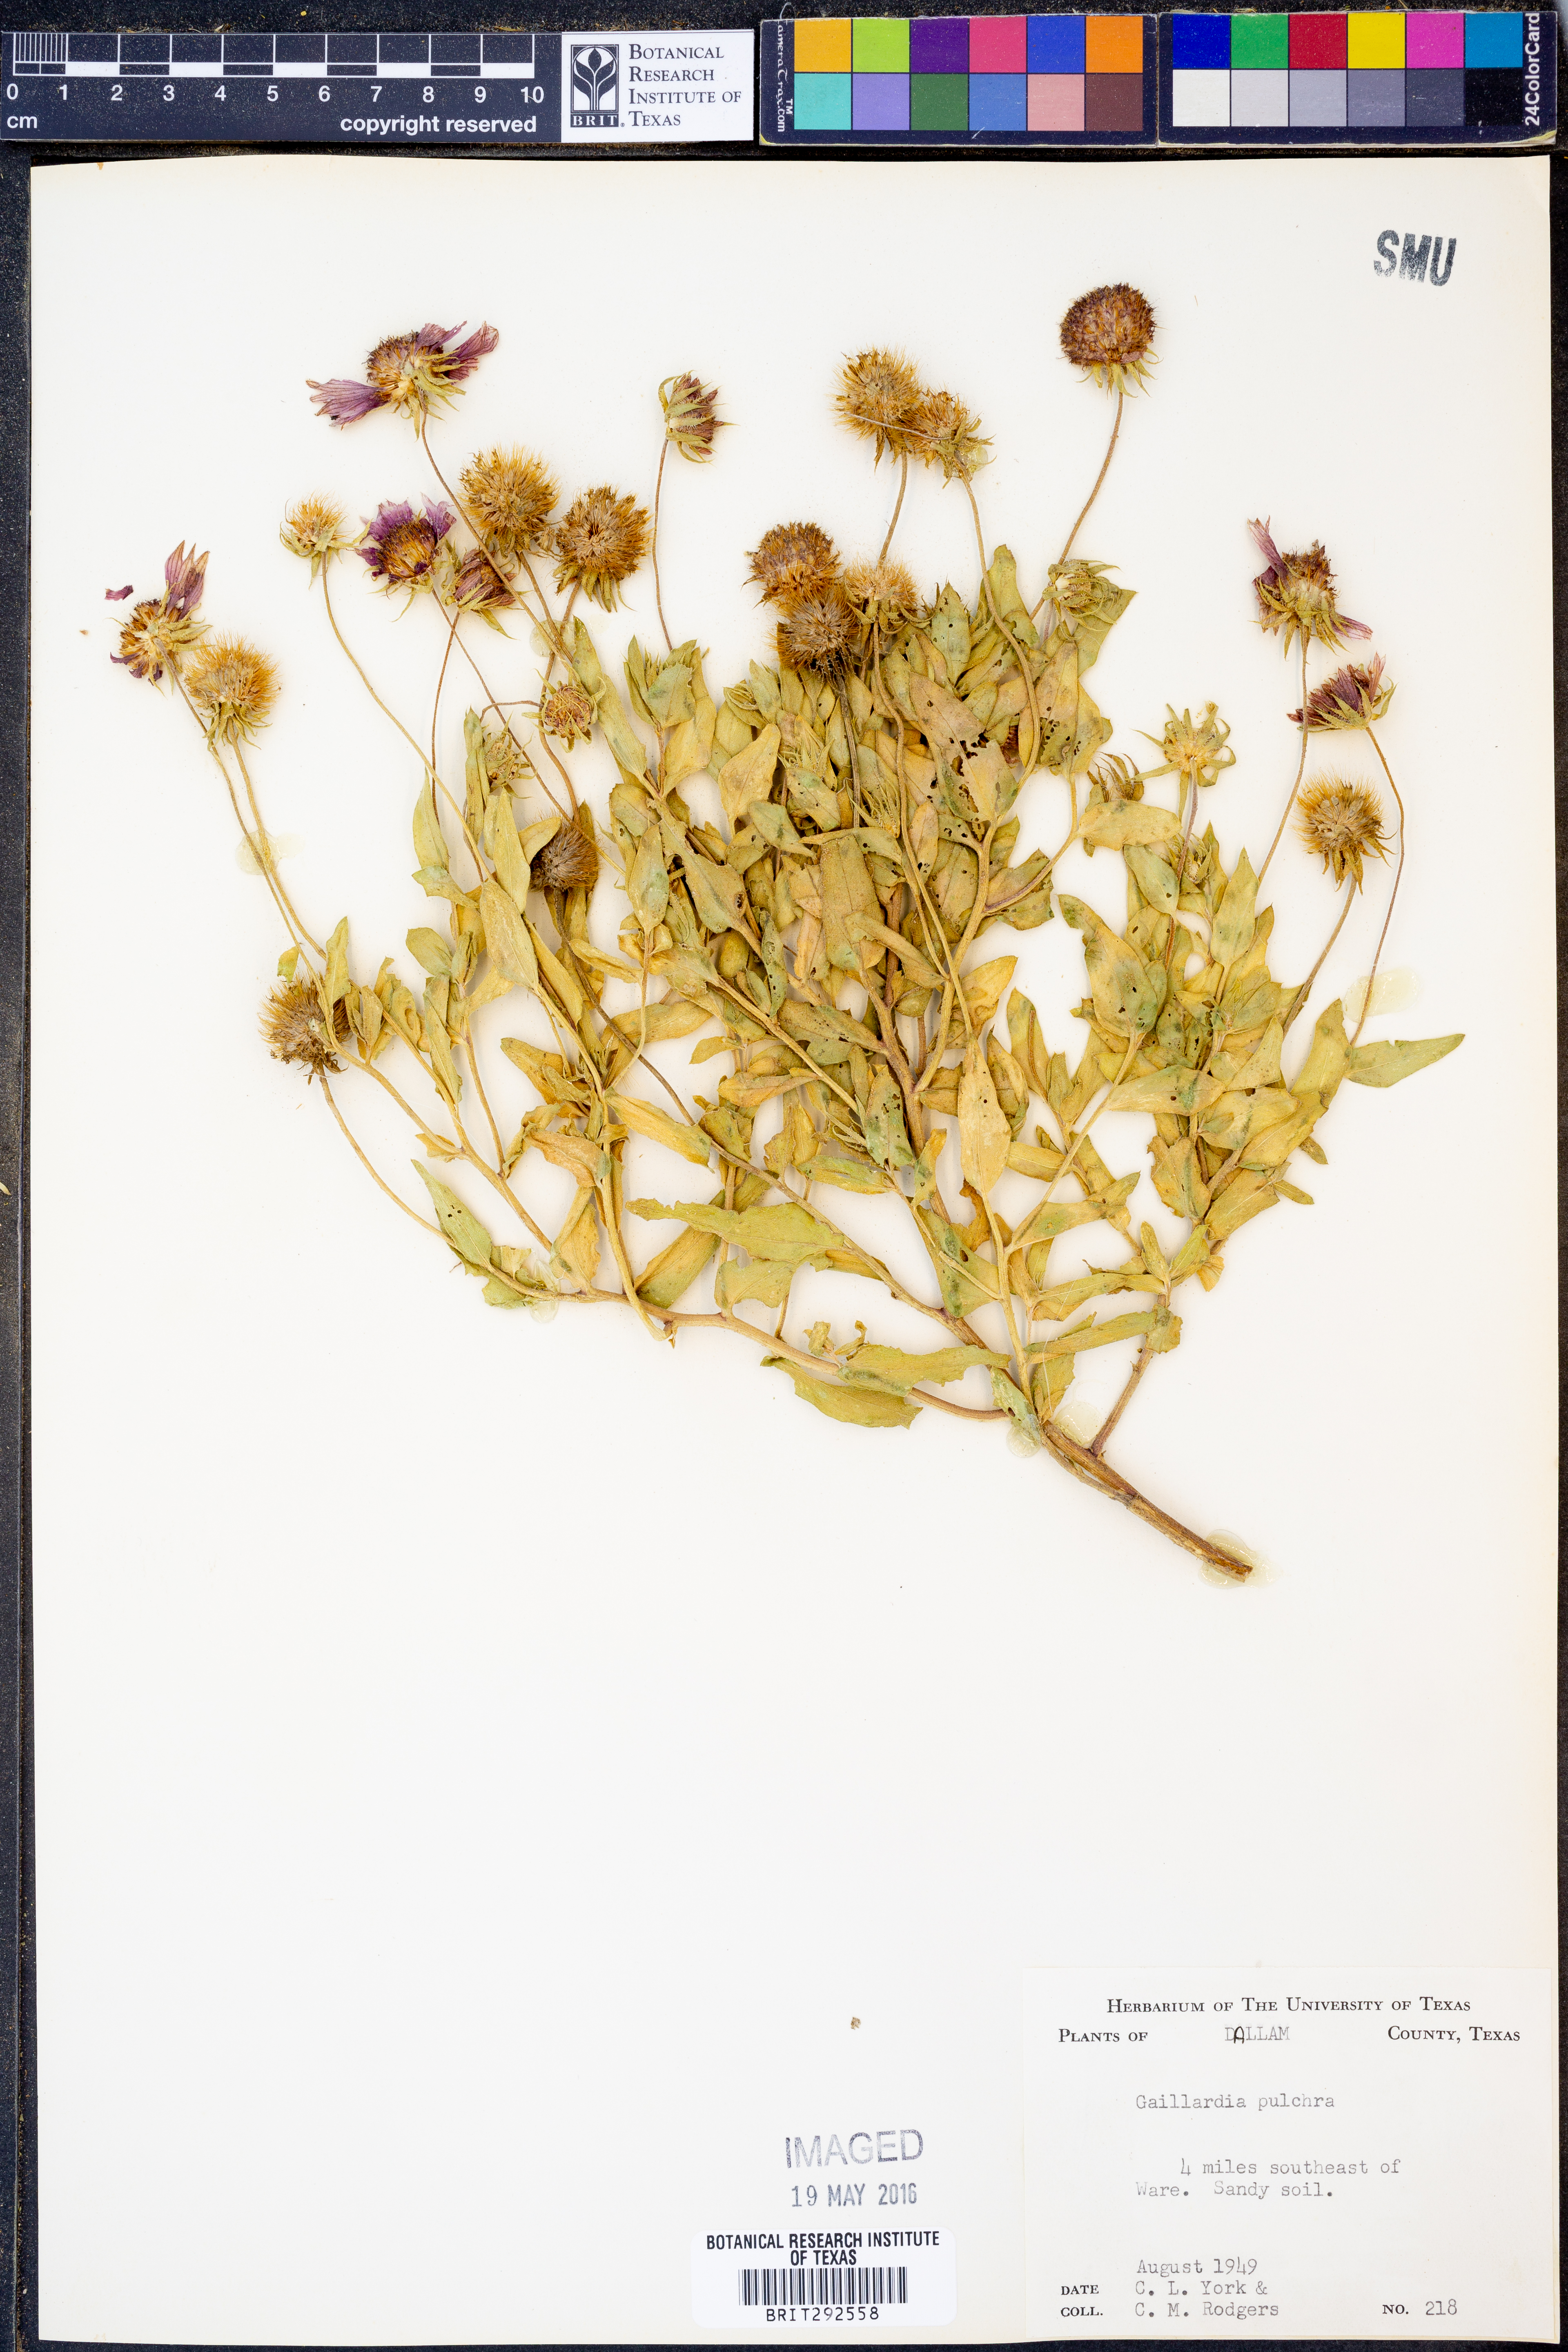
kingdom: Plantae
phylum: Tracheophyta
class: Magnoliopsida
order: Asterales
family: Asteraceae
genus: Gaillardia
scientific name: Gaillardia pulchella
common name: Firewheel
